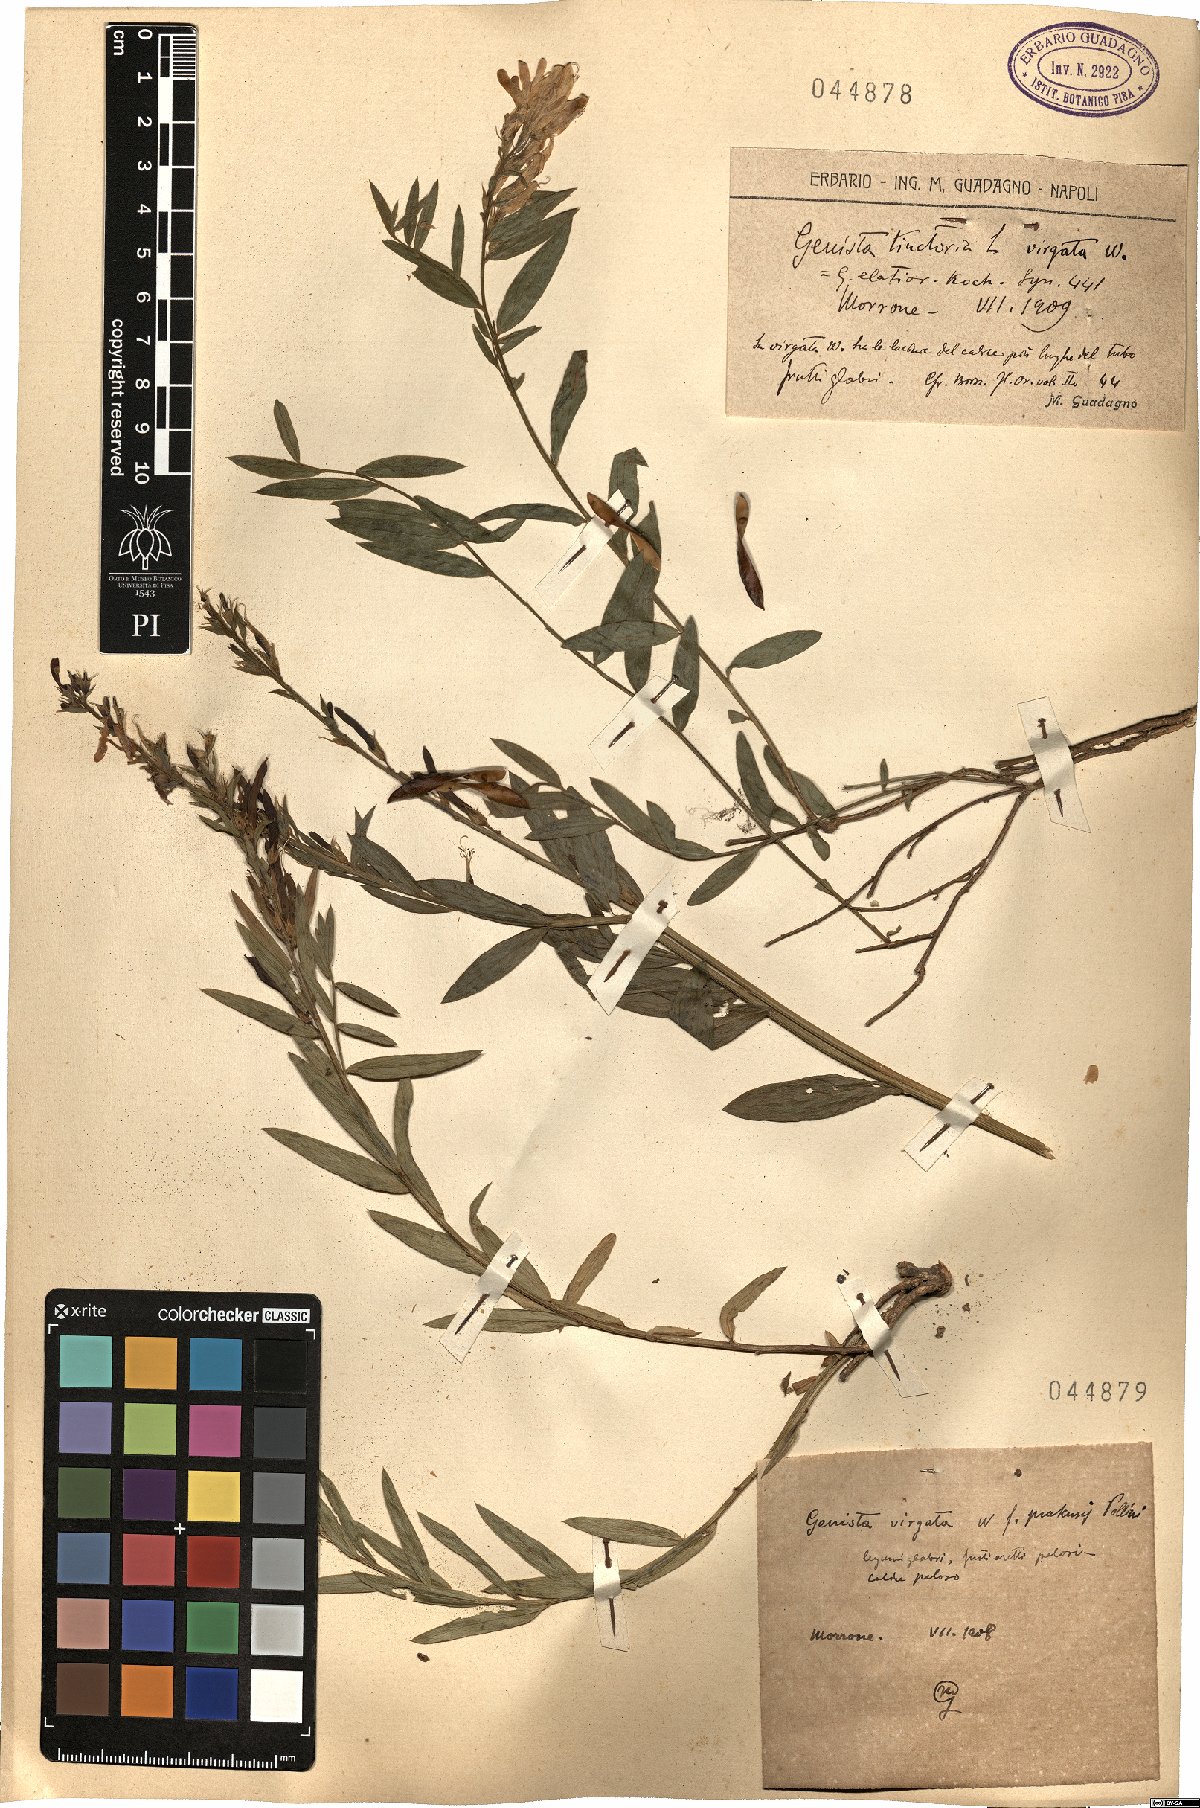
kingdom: Plantae
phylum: Tracheophyta
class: Magnoliopsida
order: Fabales
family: Fabaceae
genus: Genista
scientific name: Genista tinctoria
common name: Dyer's greenweed
